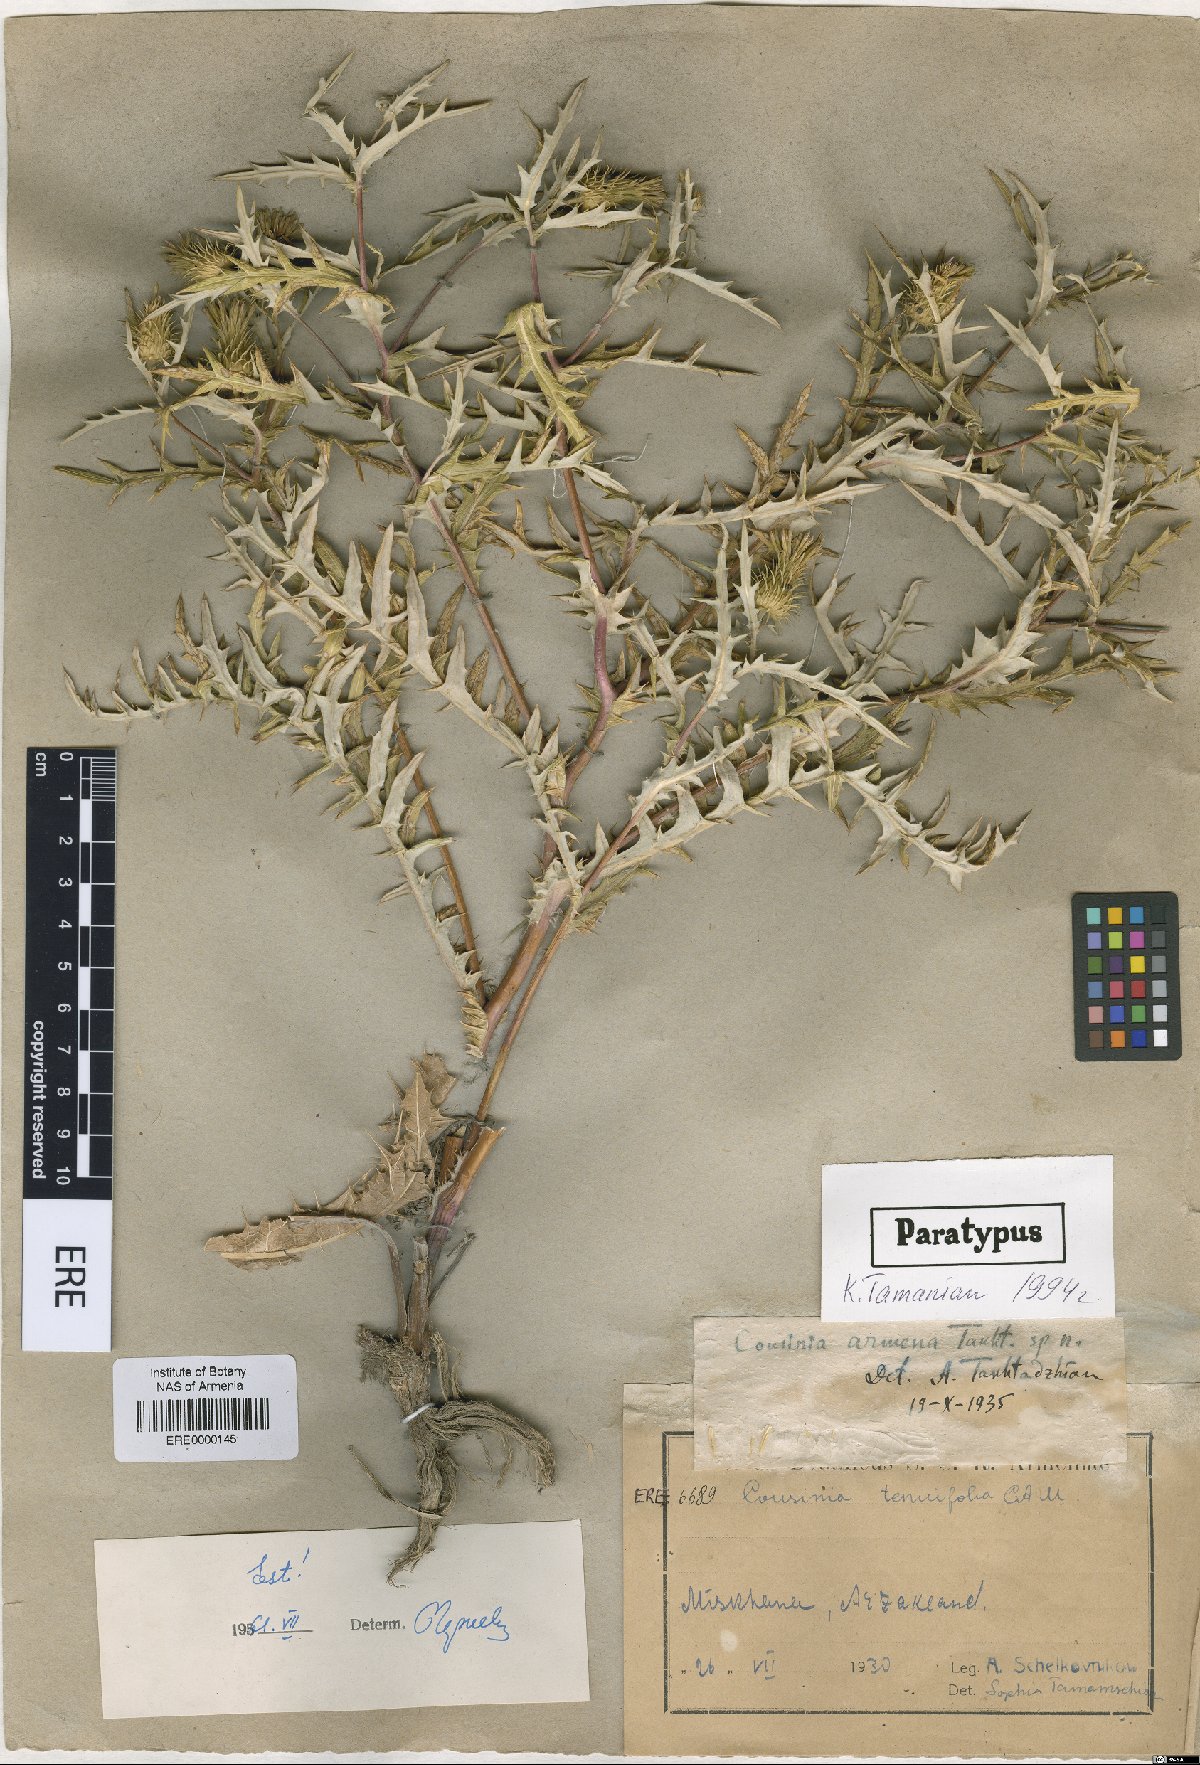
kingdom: Plantae
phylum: Tracheophyta
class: Magnoliopsida
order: Asterales
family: Asteraceae
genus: Cousinia
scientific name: Cousinia armena
